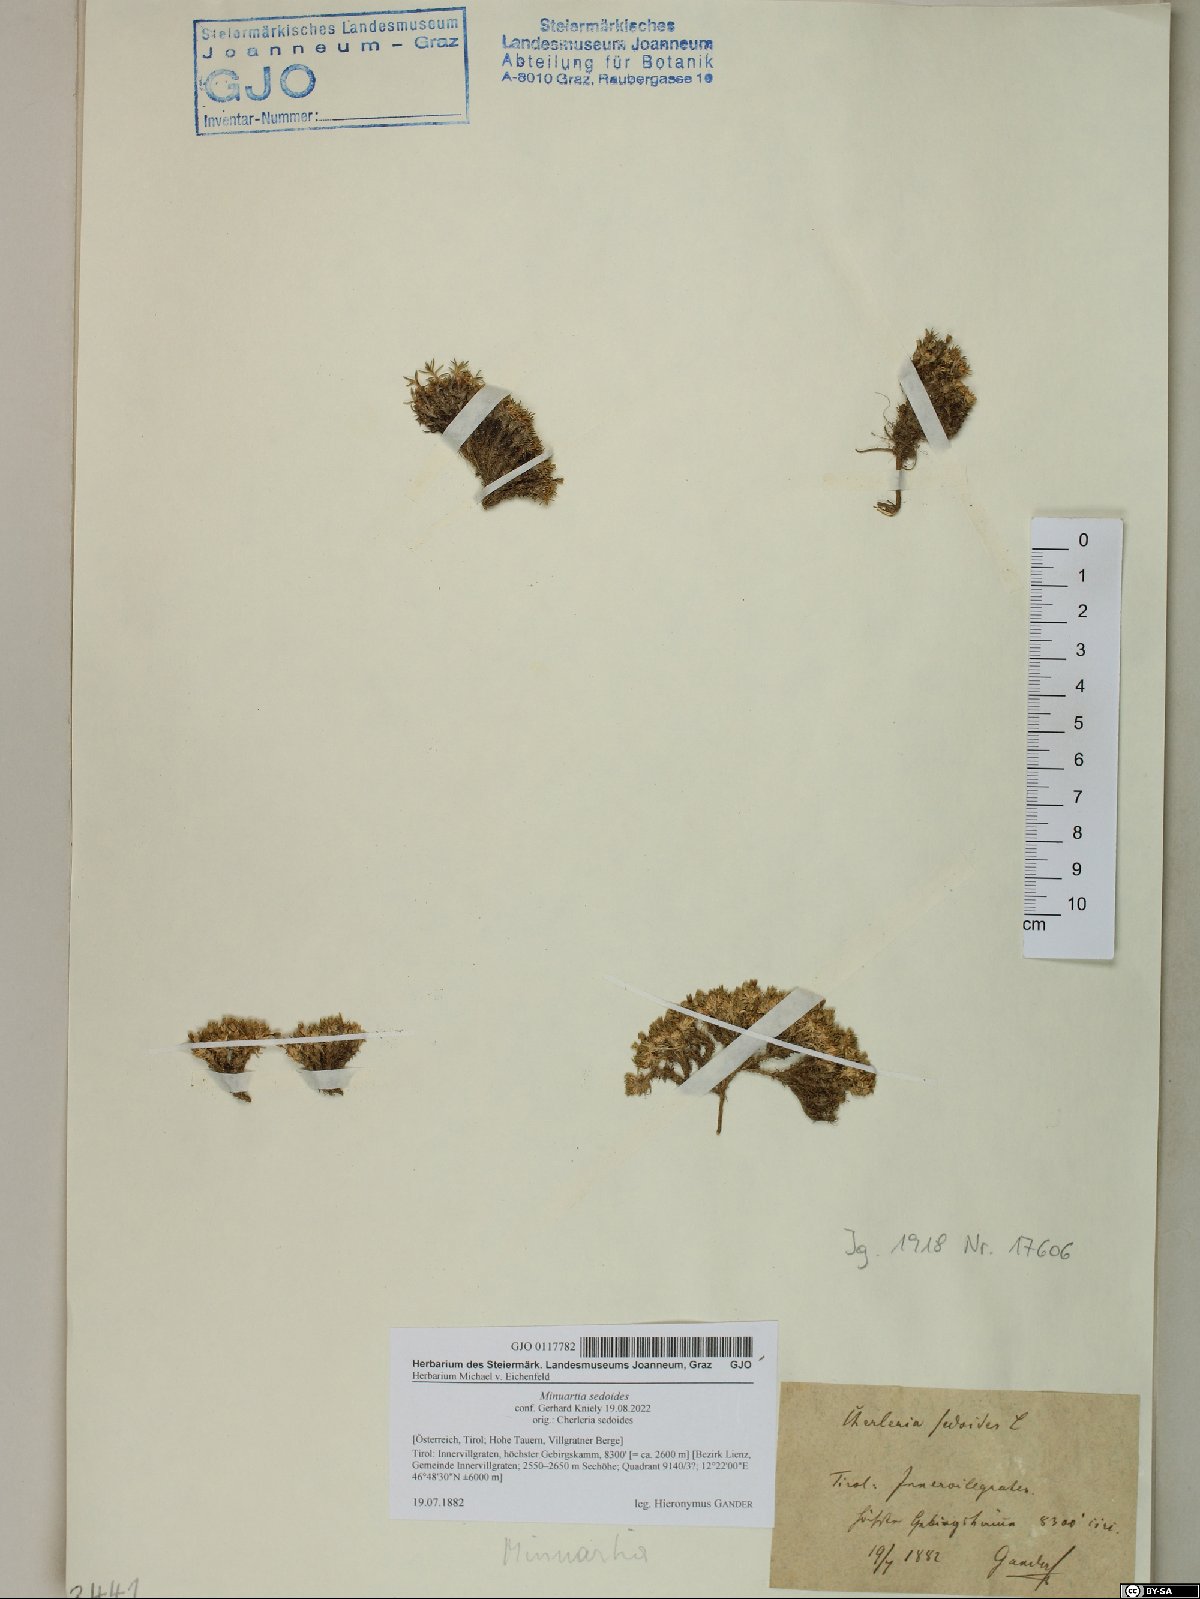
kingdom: Plantae
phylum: Tracheophyta
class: Magnoliopsida
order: Caryophyllales
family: Caryophyllaceae
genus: Cherleria
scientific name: Cherleria sedoides
